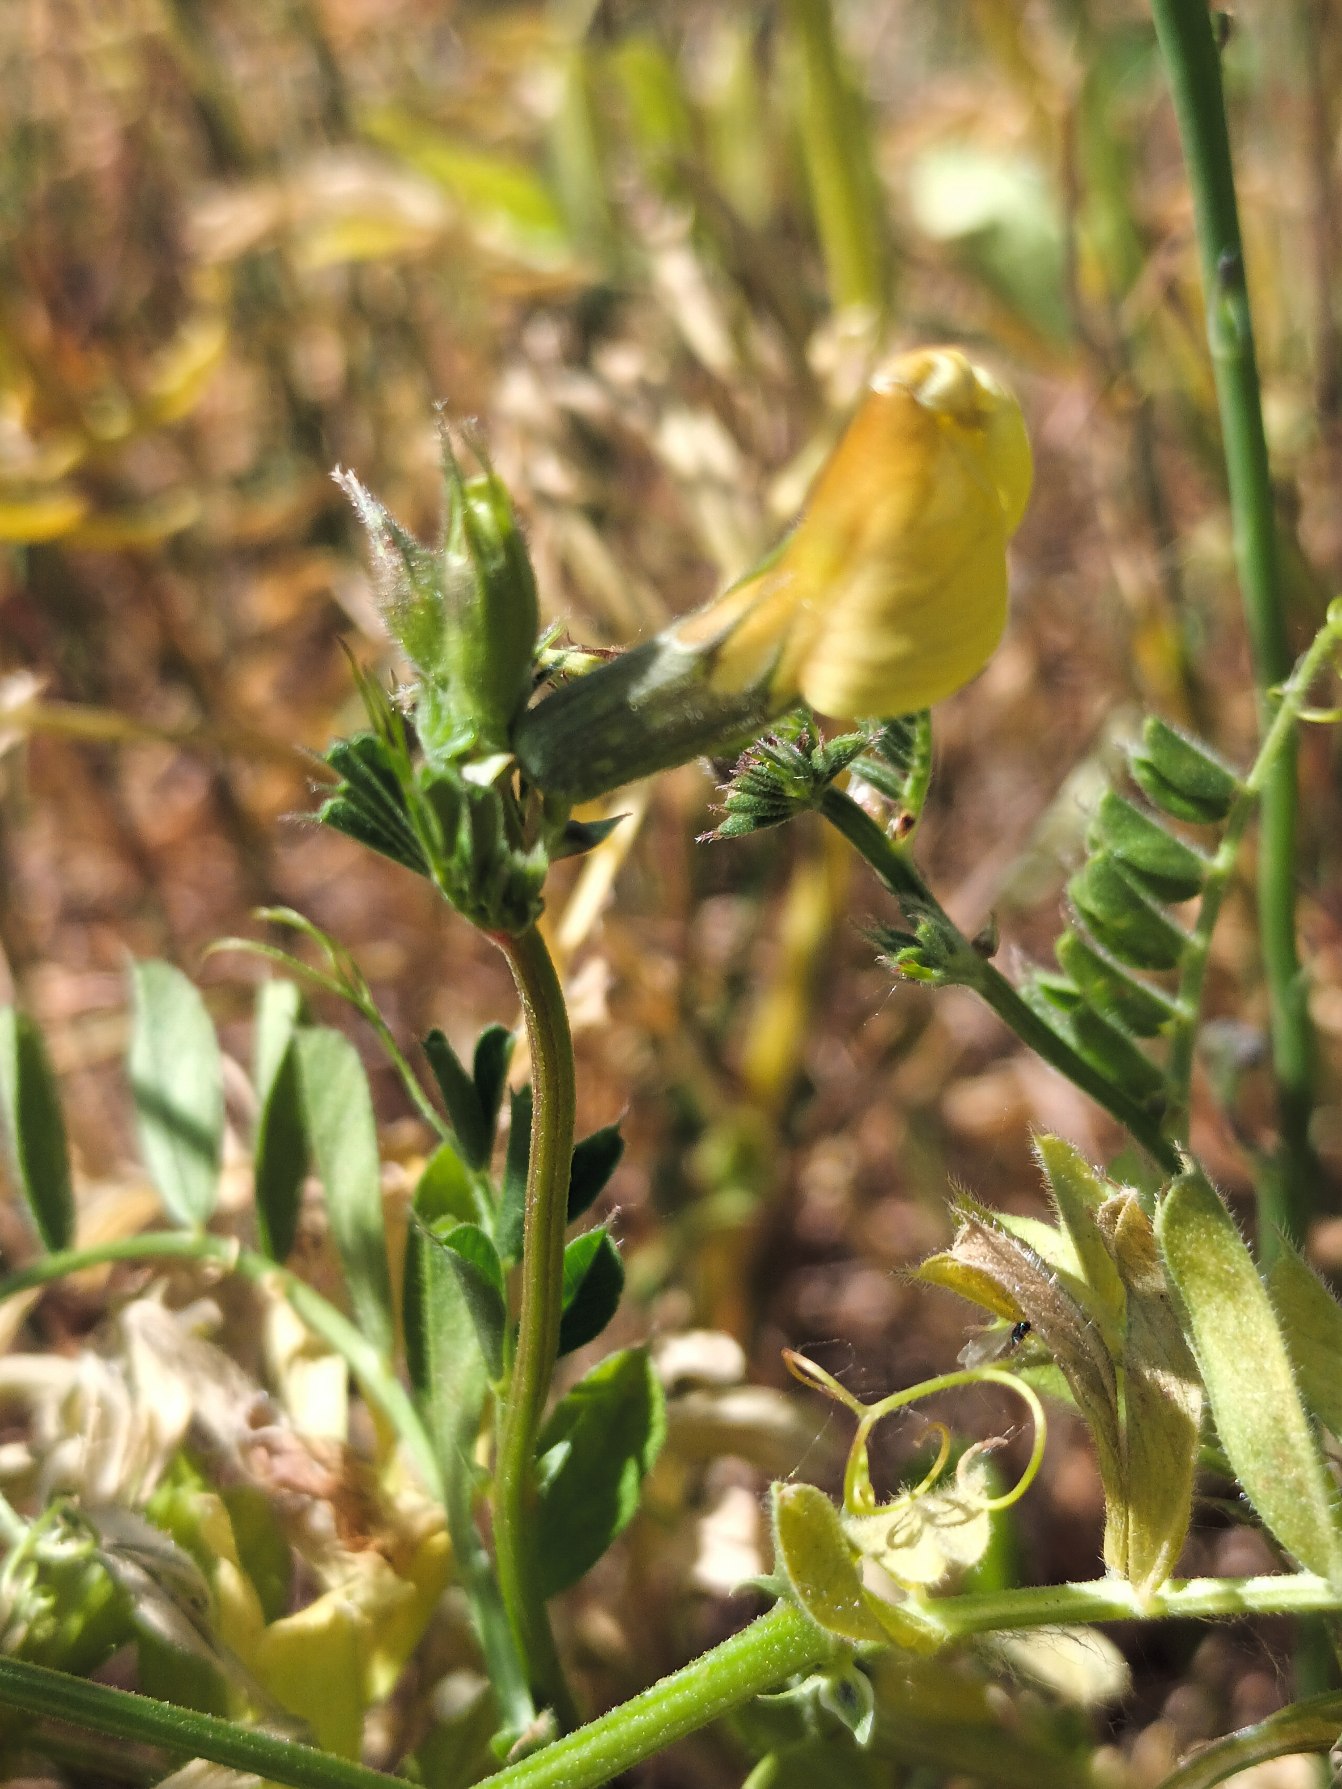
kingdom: Plantae
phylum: Tracheophyta
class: Magnoliopsida
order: Fabales
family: Fabaceae
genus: Vicia
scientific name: Vicia grandiflora
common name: Storblomstret vikke
